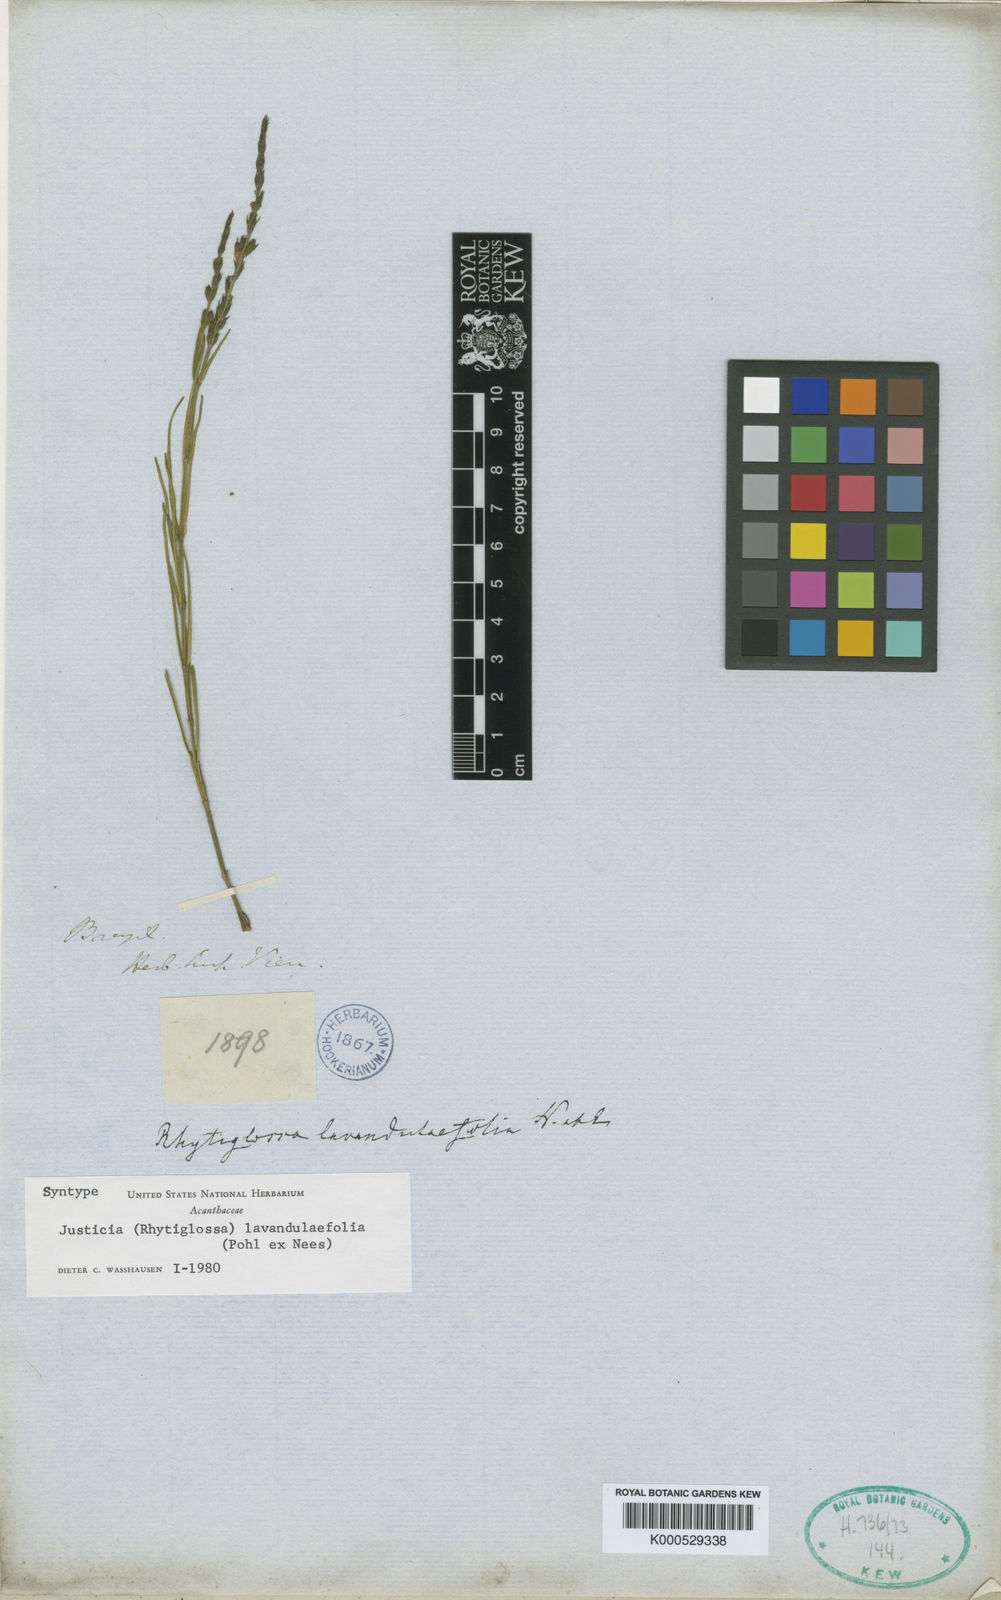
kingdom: Plantae
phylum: Tracheophyta
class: Magnoliopsida
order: Lamiales
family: Acanthaceae
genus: Justicia
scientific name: Justicia lavandulifolia
